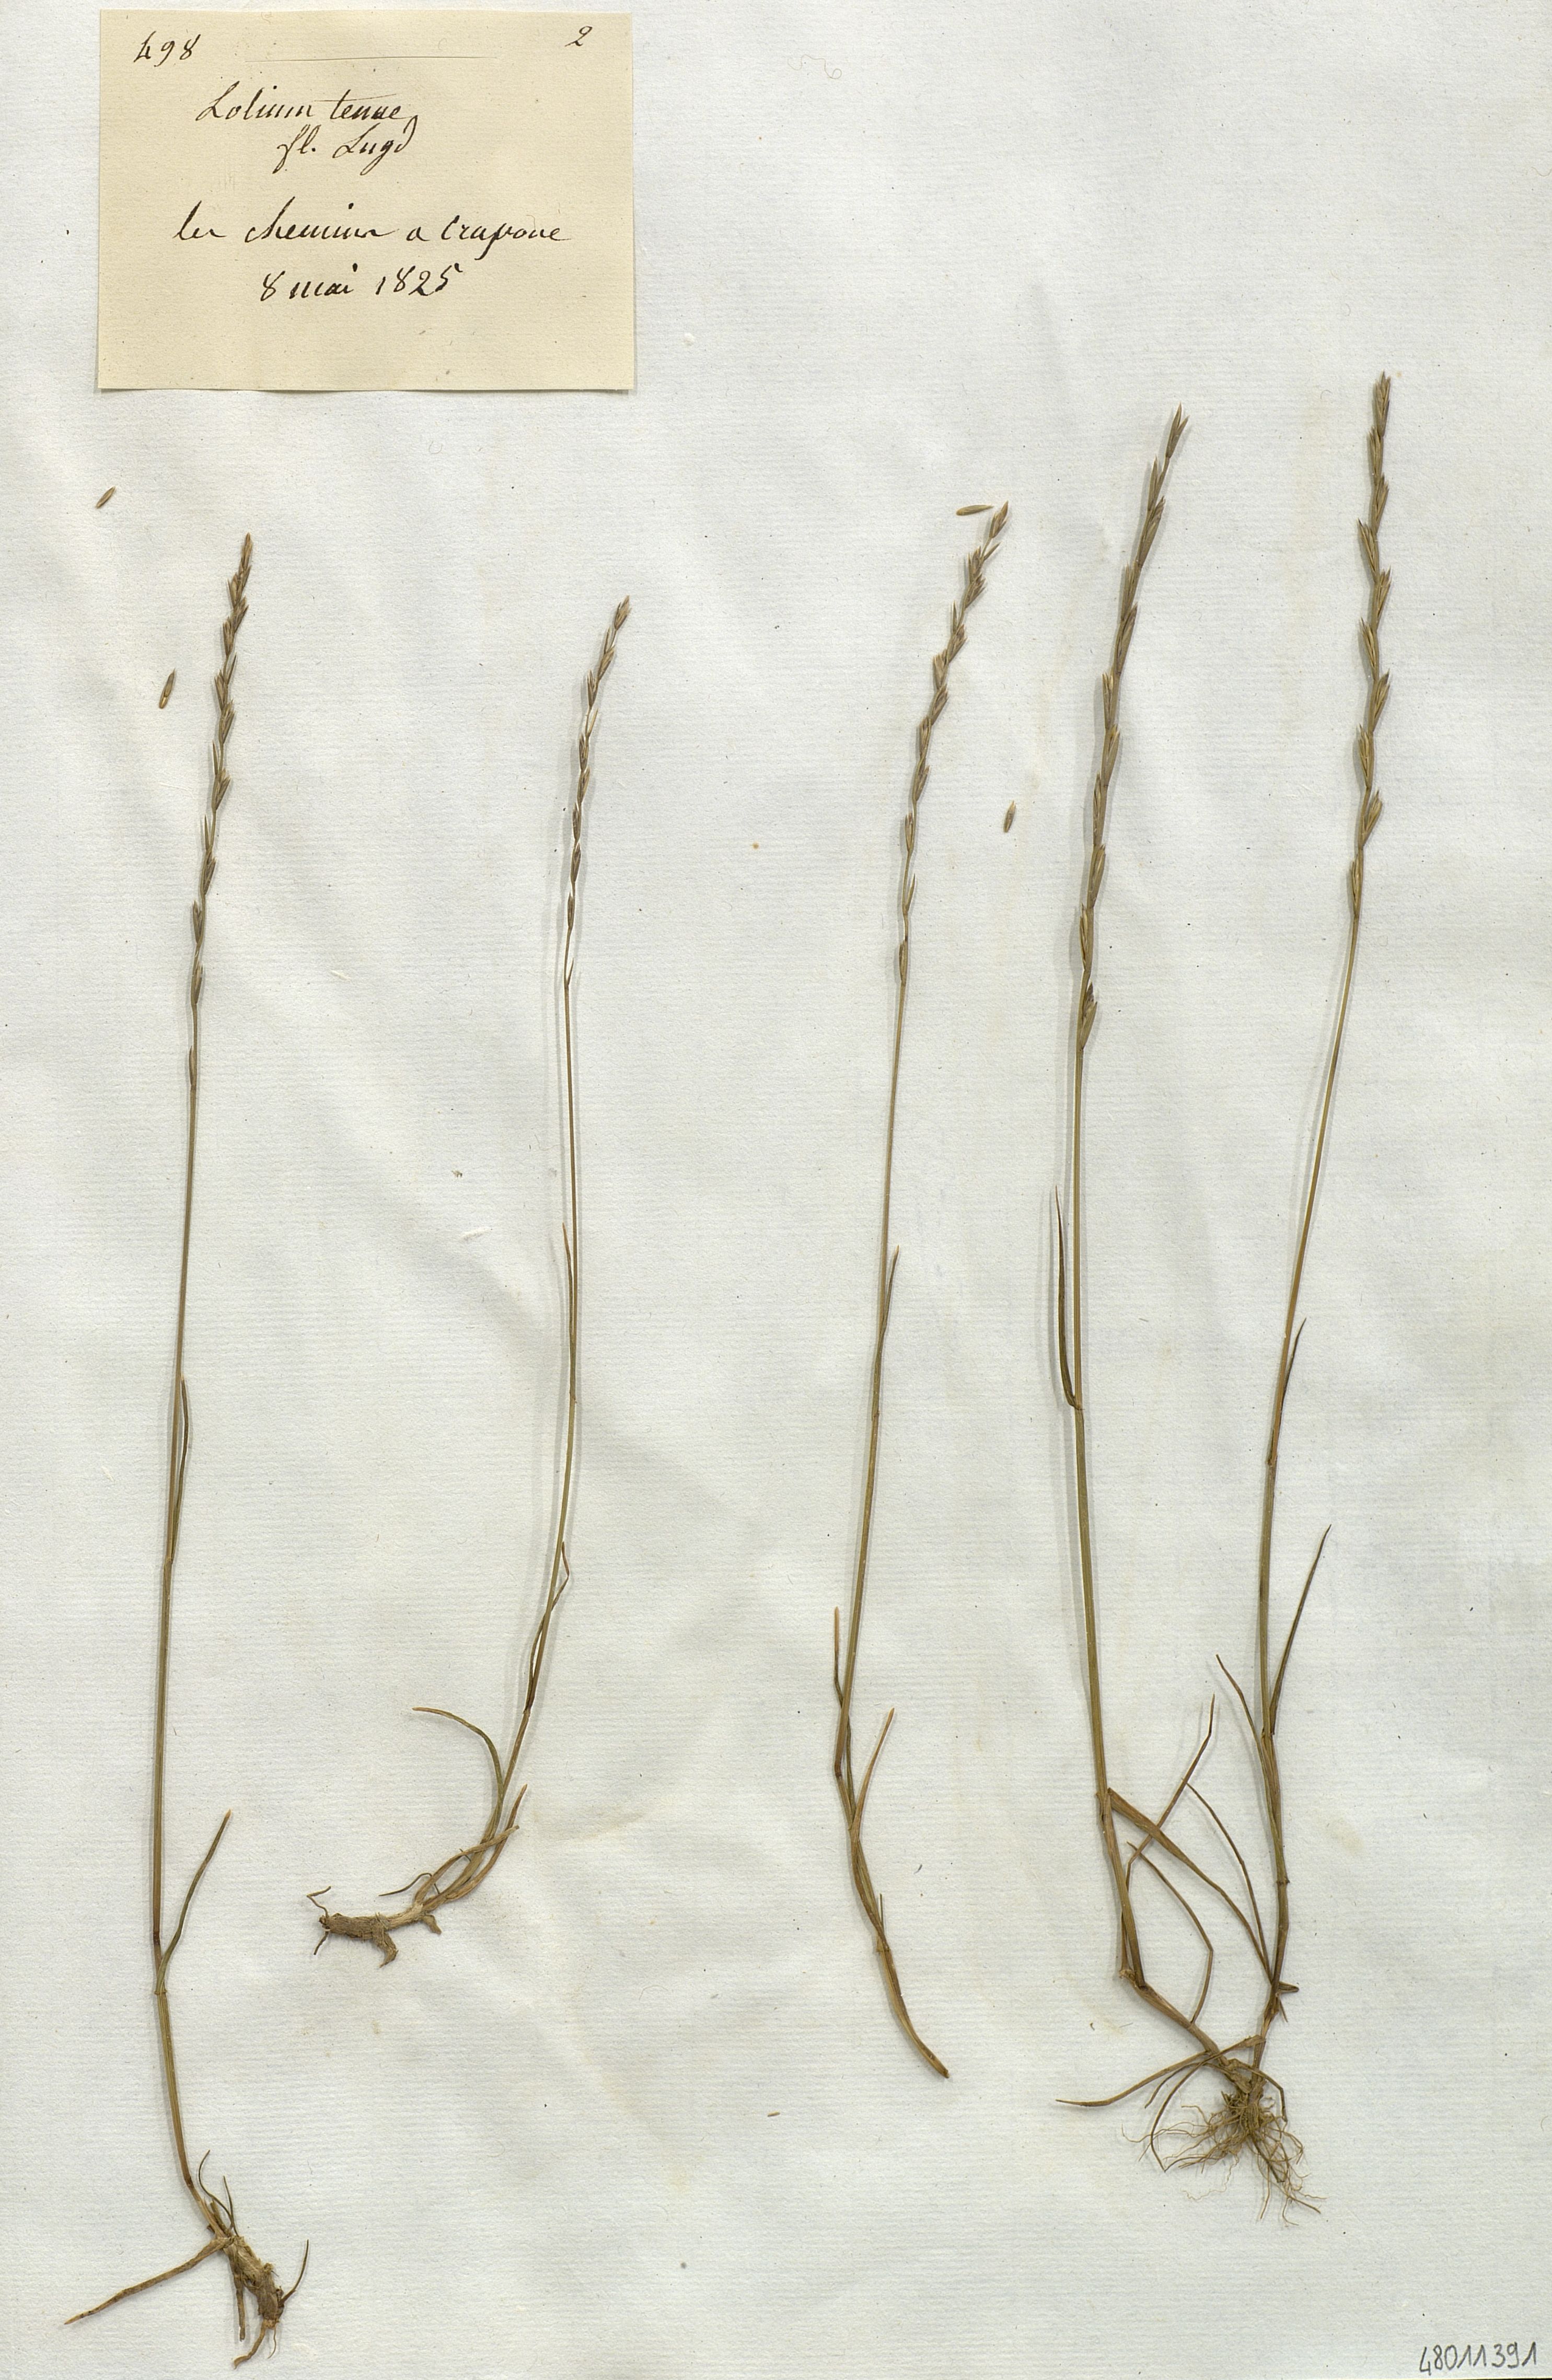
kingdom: Plantae
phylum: Tracheophyta
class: Liliopsida
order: Poales
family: Poaceae
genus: Lolium
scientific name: Lolium tenue
